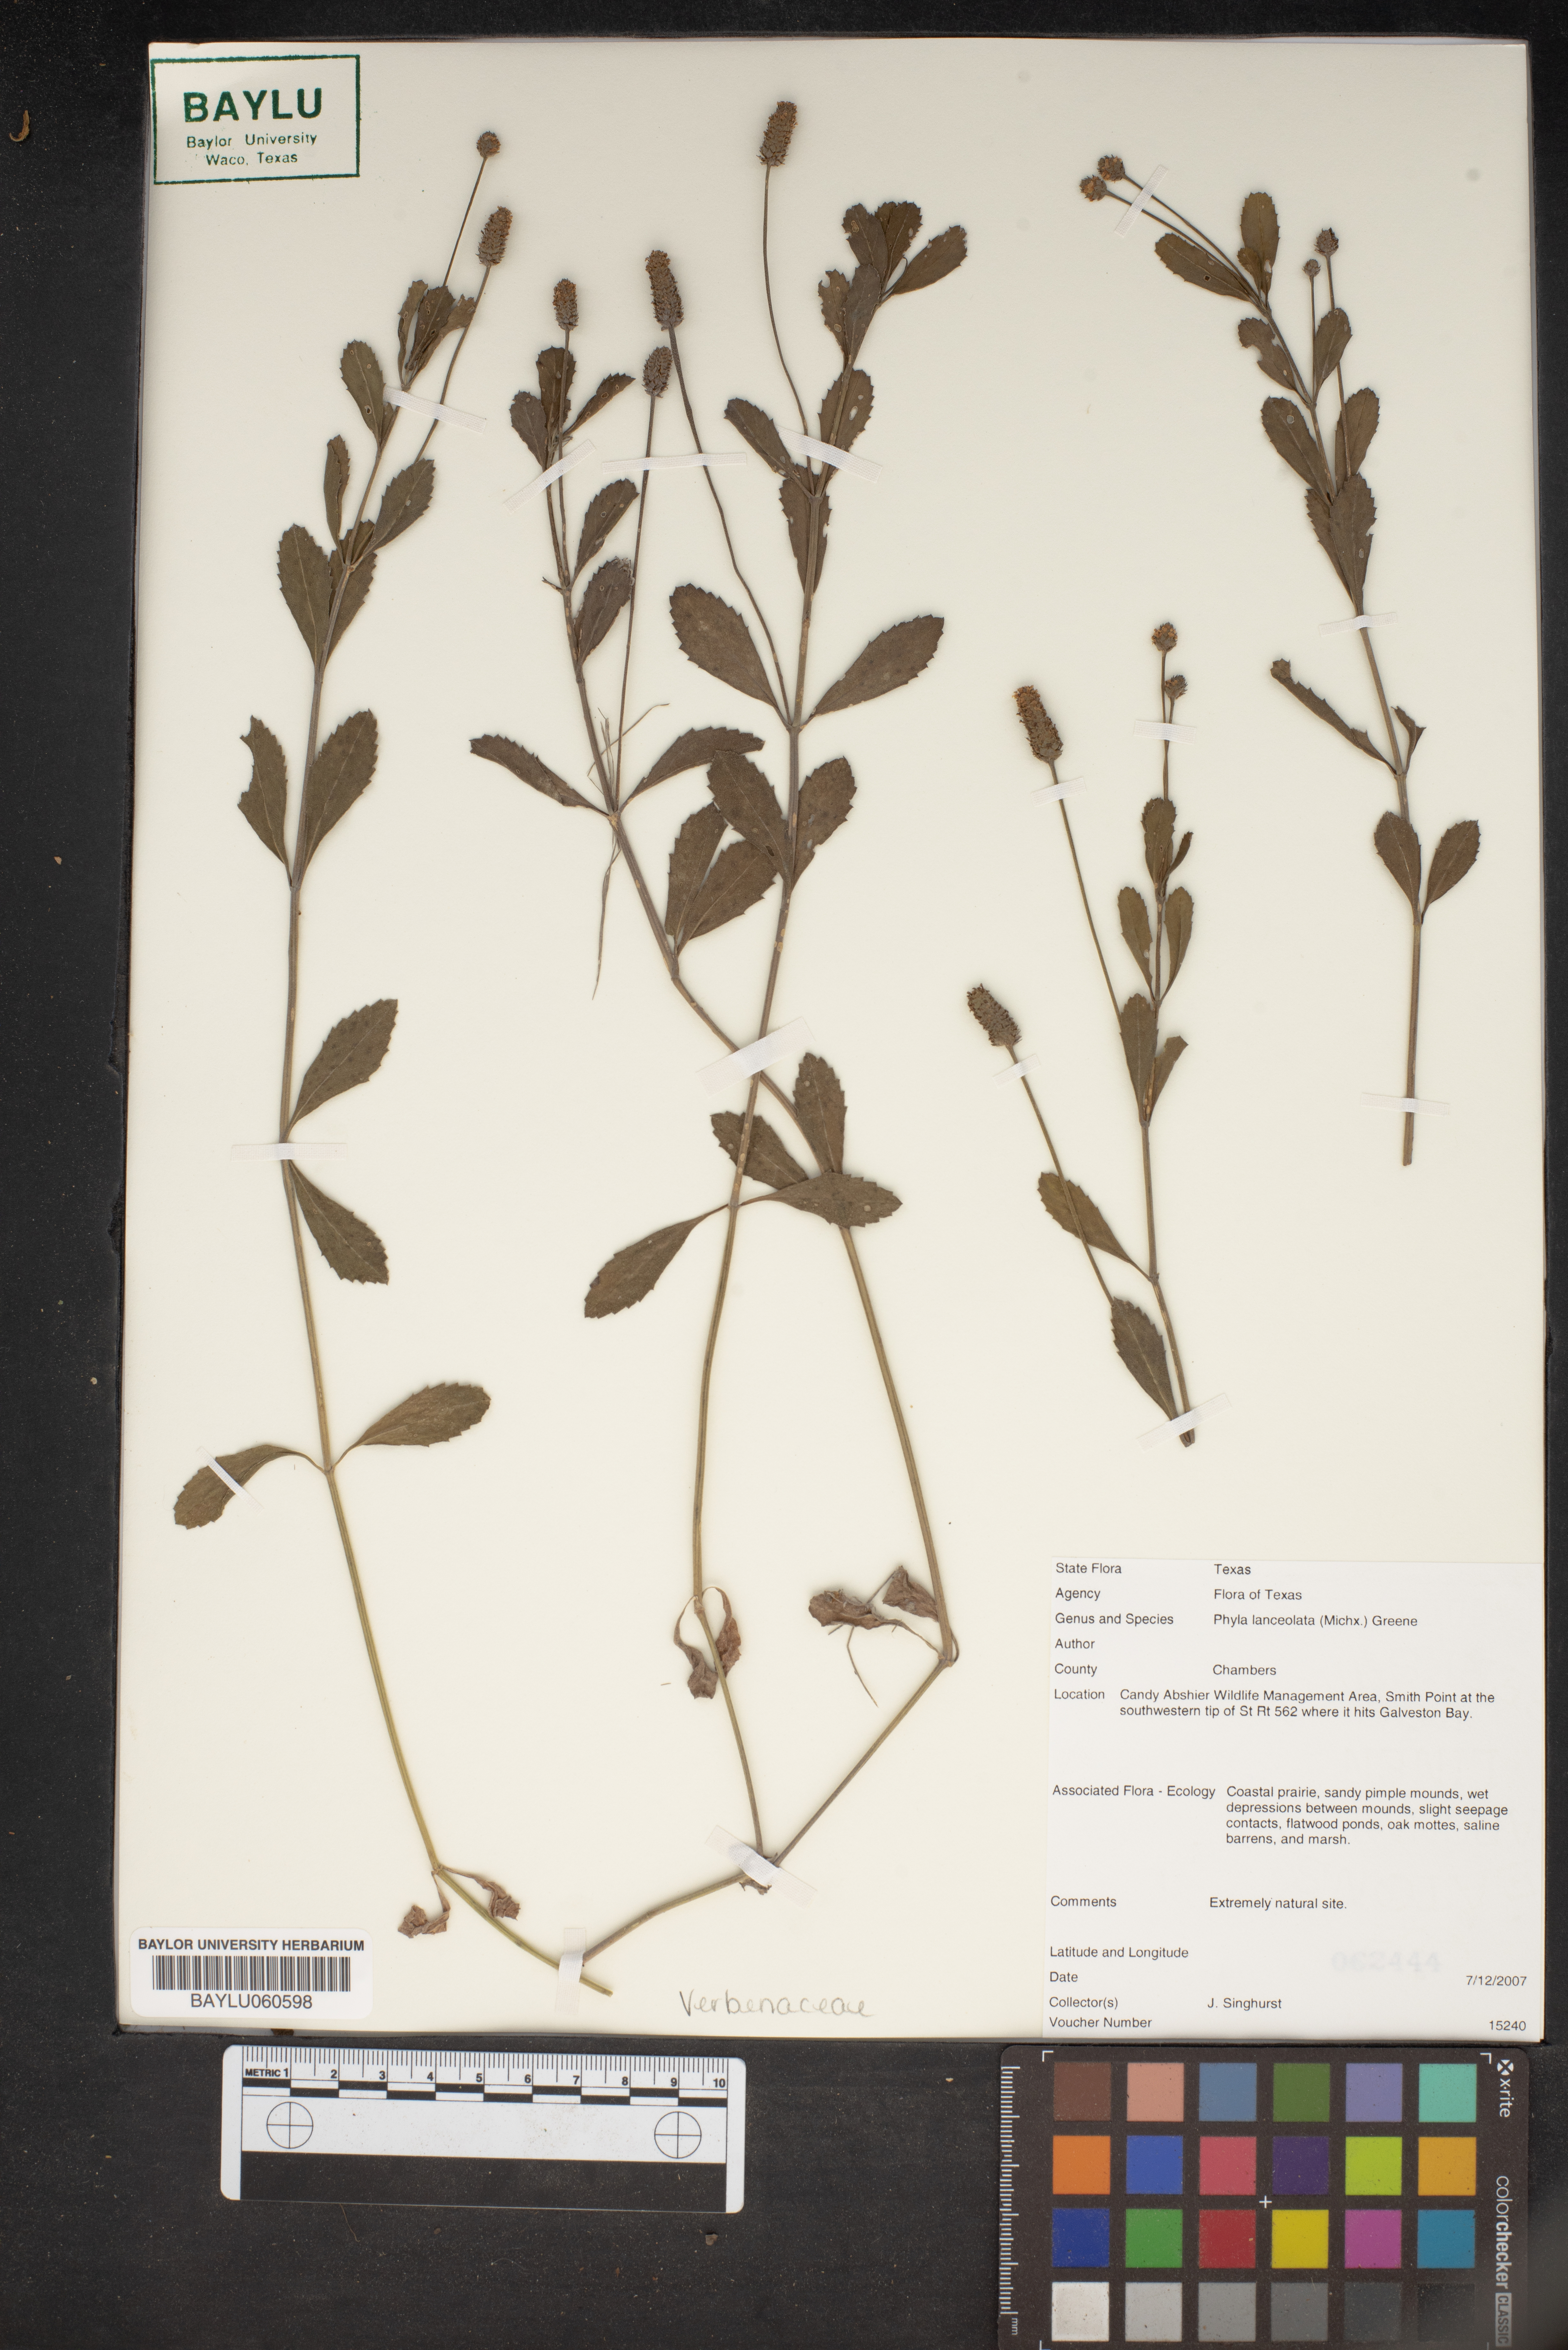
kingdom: Plantae
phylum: Tracheophyta
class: Magnoliopsida
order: Lamiales
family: Verbenaceae
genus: Phyla
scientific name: Phyla lanceolata
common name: Northern fogfruit
